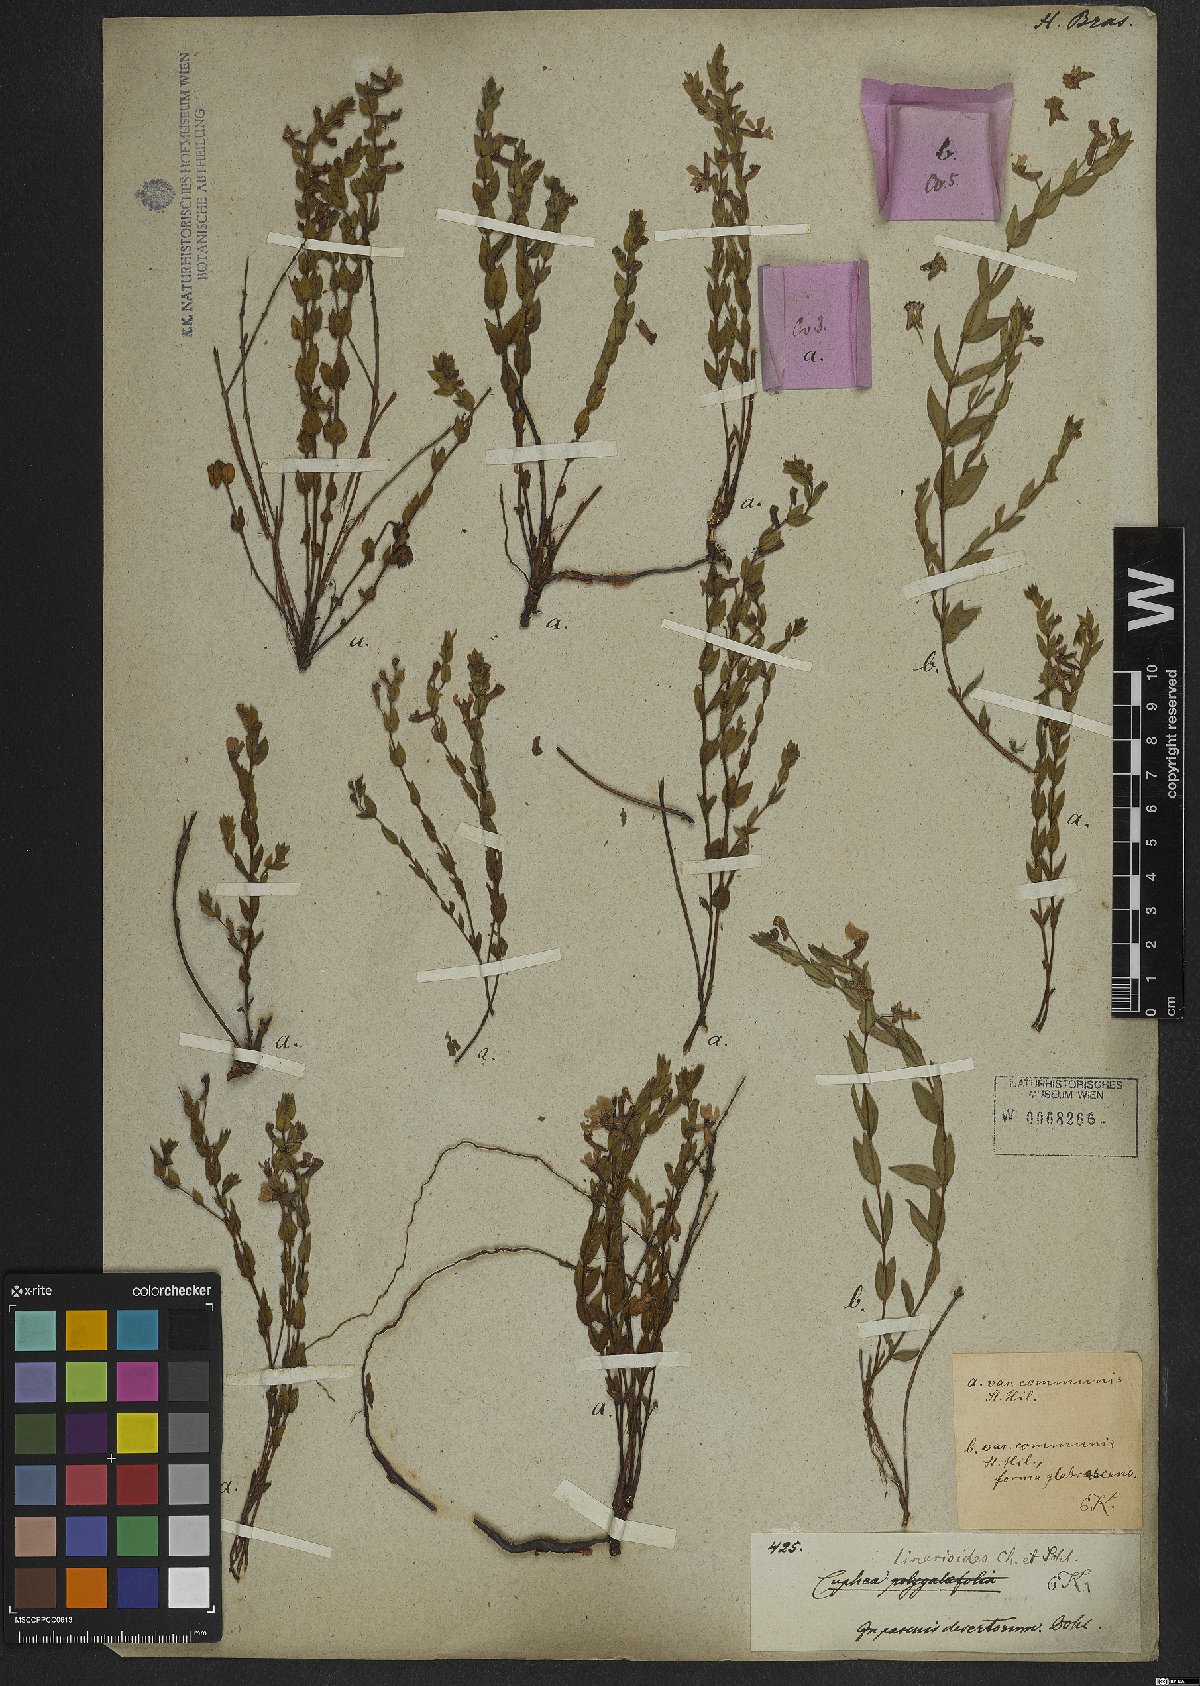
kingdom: Plantae
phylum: Tracheophyta
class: Magnoliopsida
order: Myrtales
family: Lythraceae
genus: Cuphea
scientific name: Cuphea linarioides
